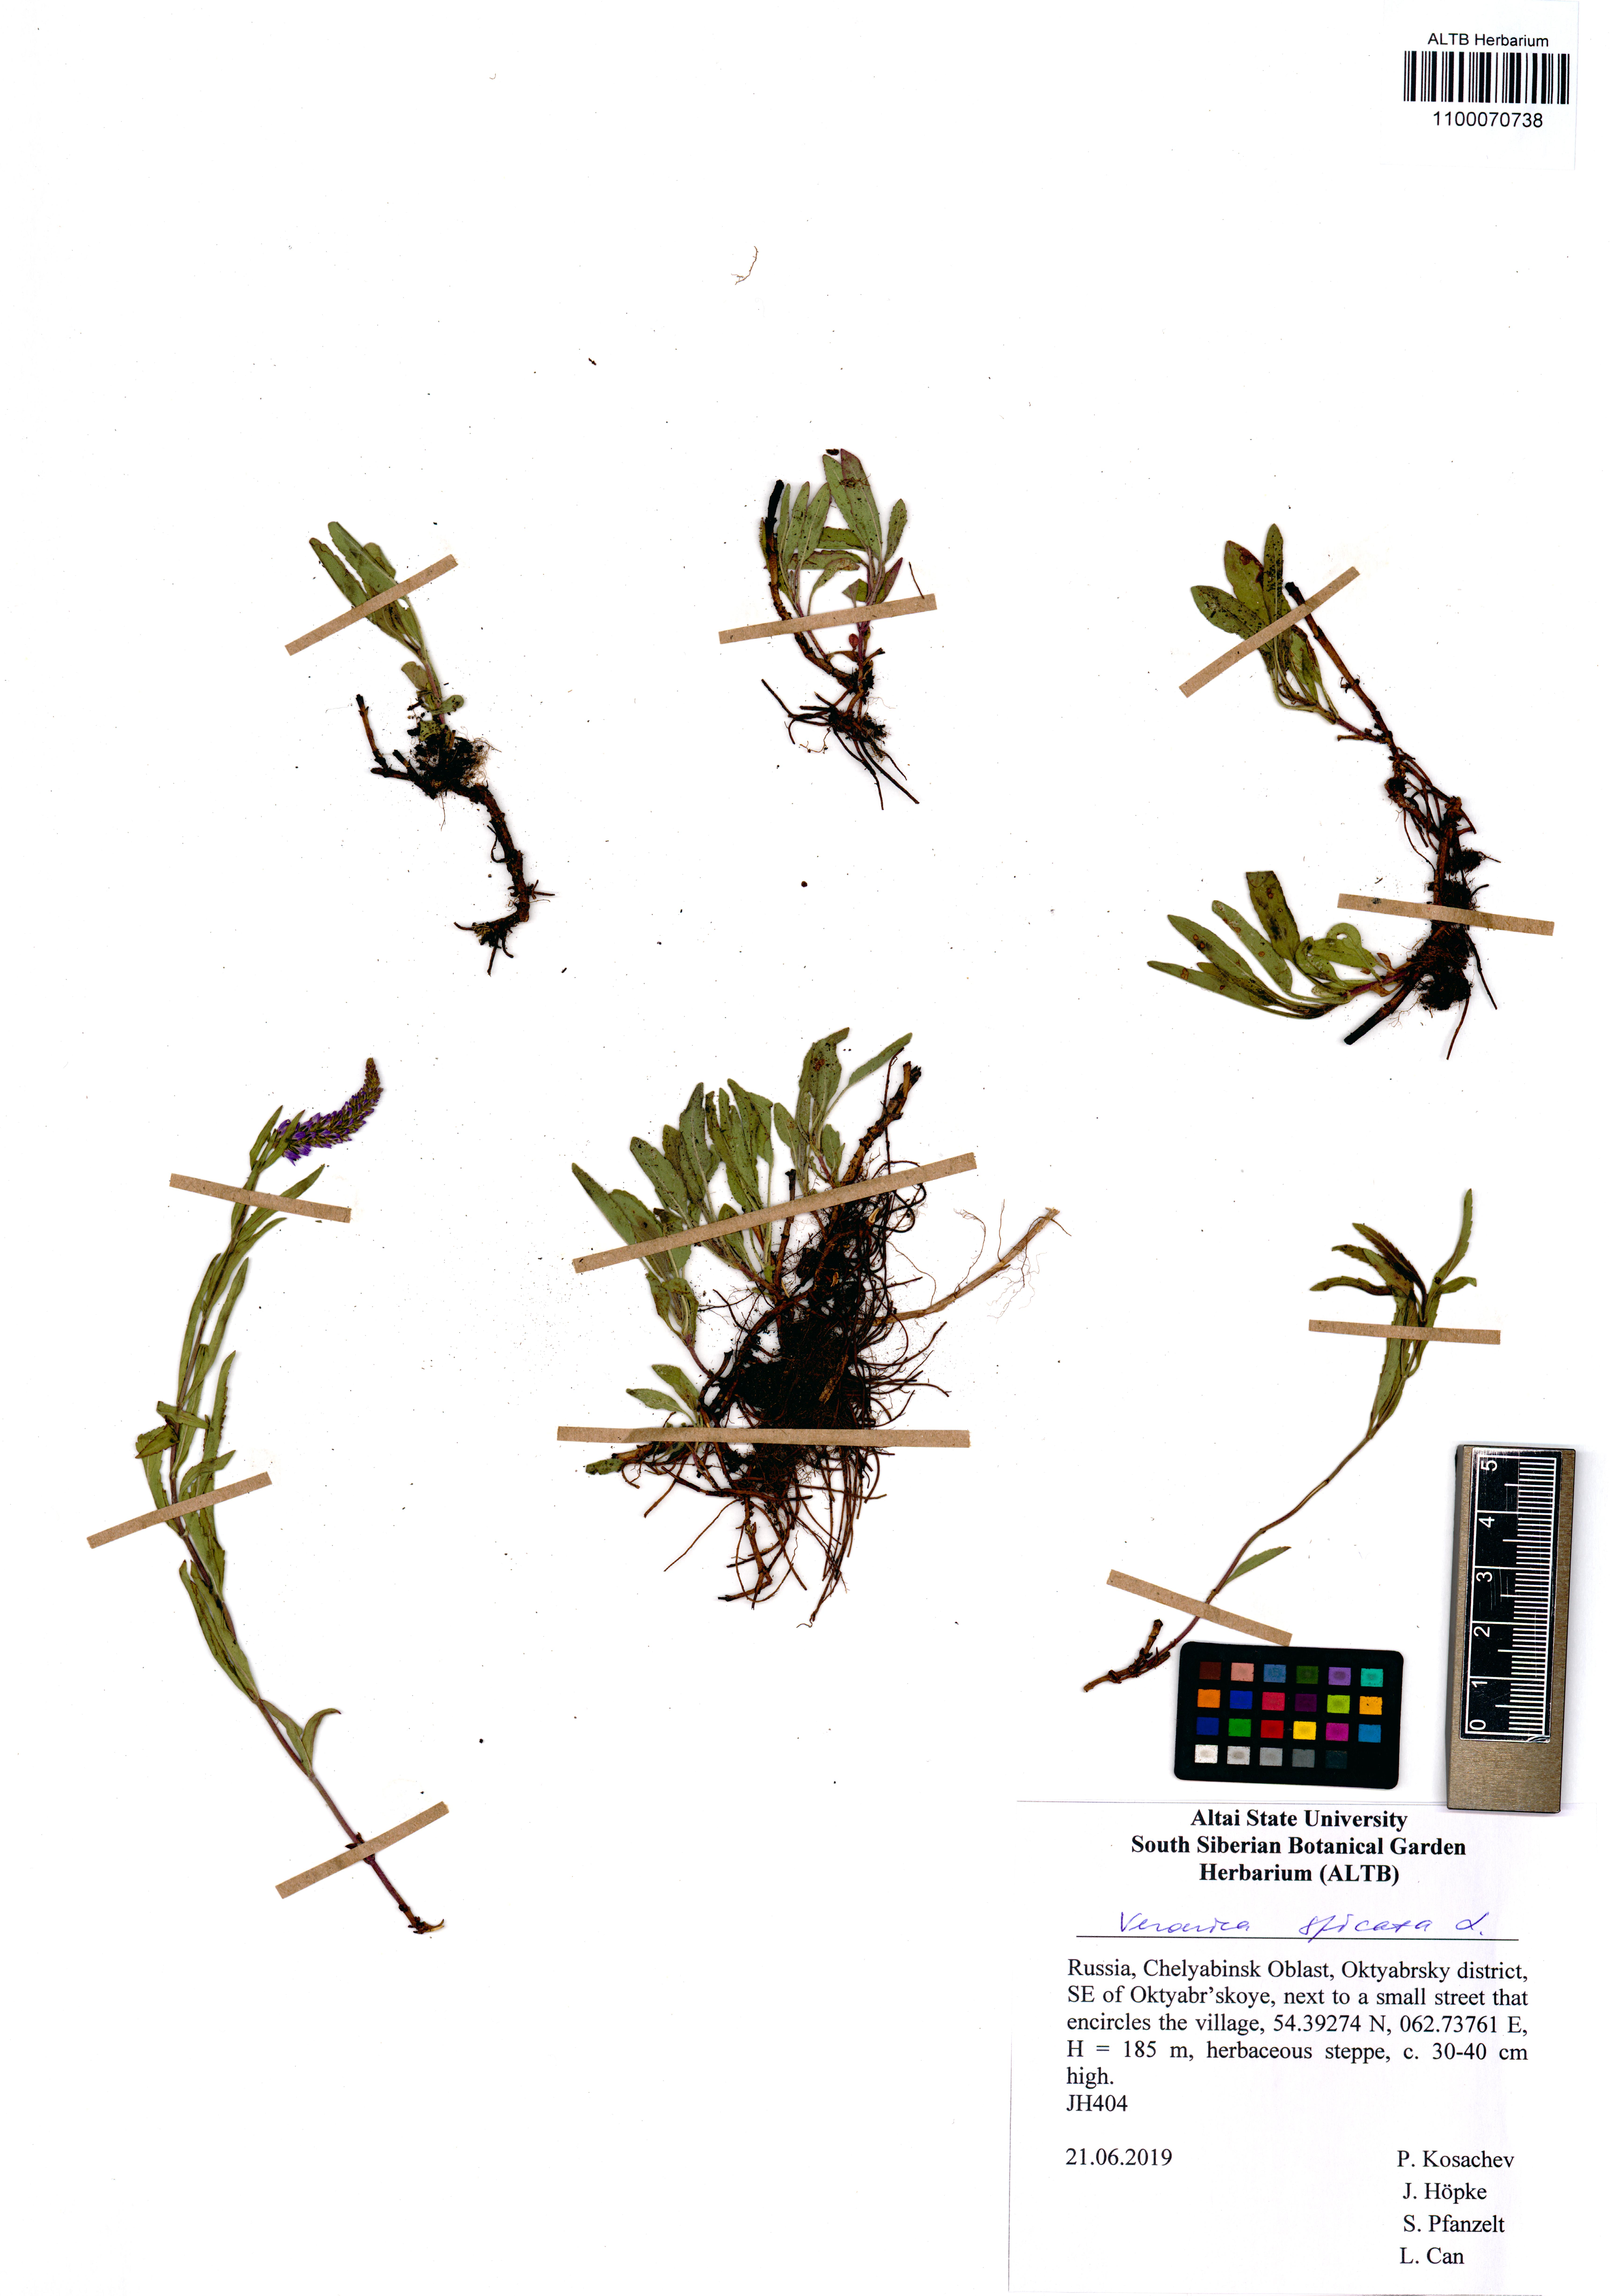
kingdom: Plantae
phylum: Tracheophyta
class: Magnoliopsida
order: Lamiales
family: Plantaginaceae
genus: Veronica
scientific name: Veronica spicata
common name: Spiked speedwell
